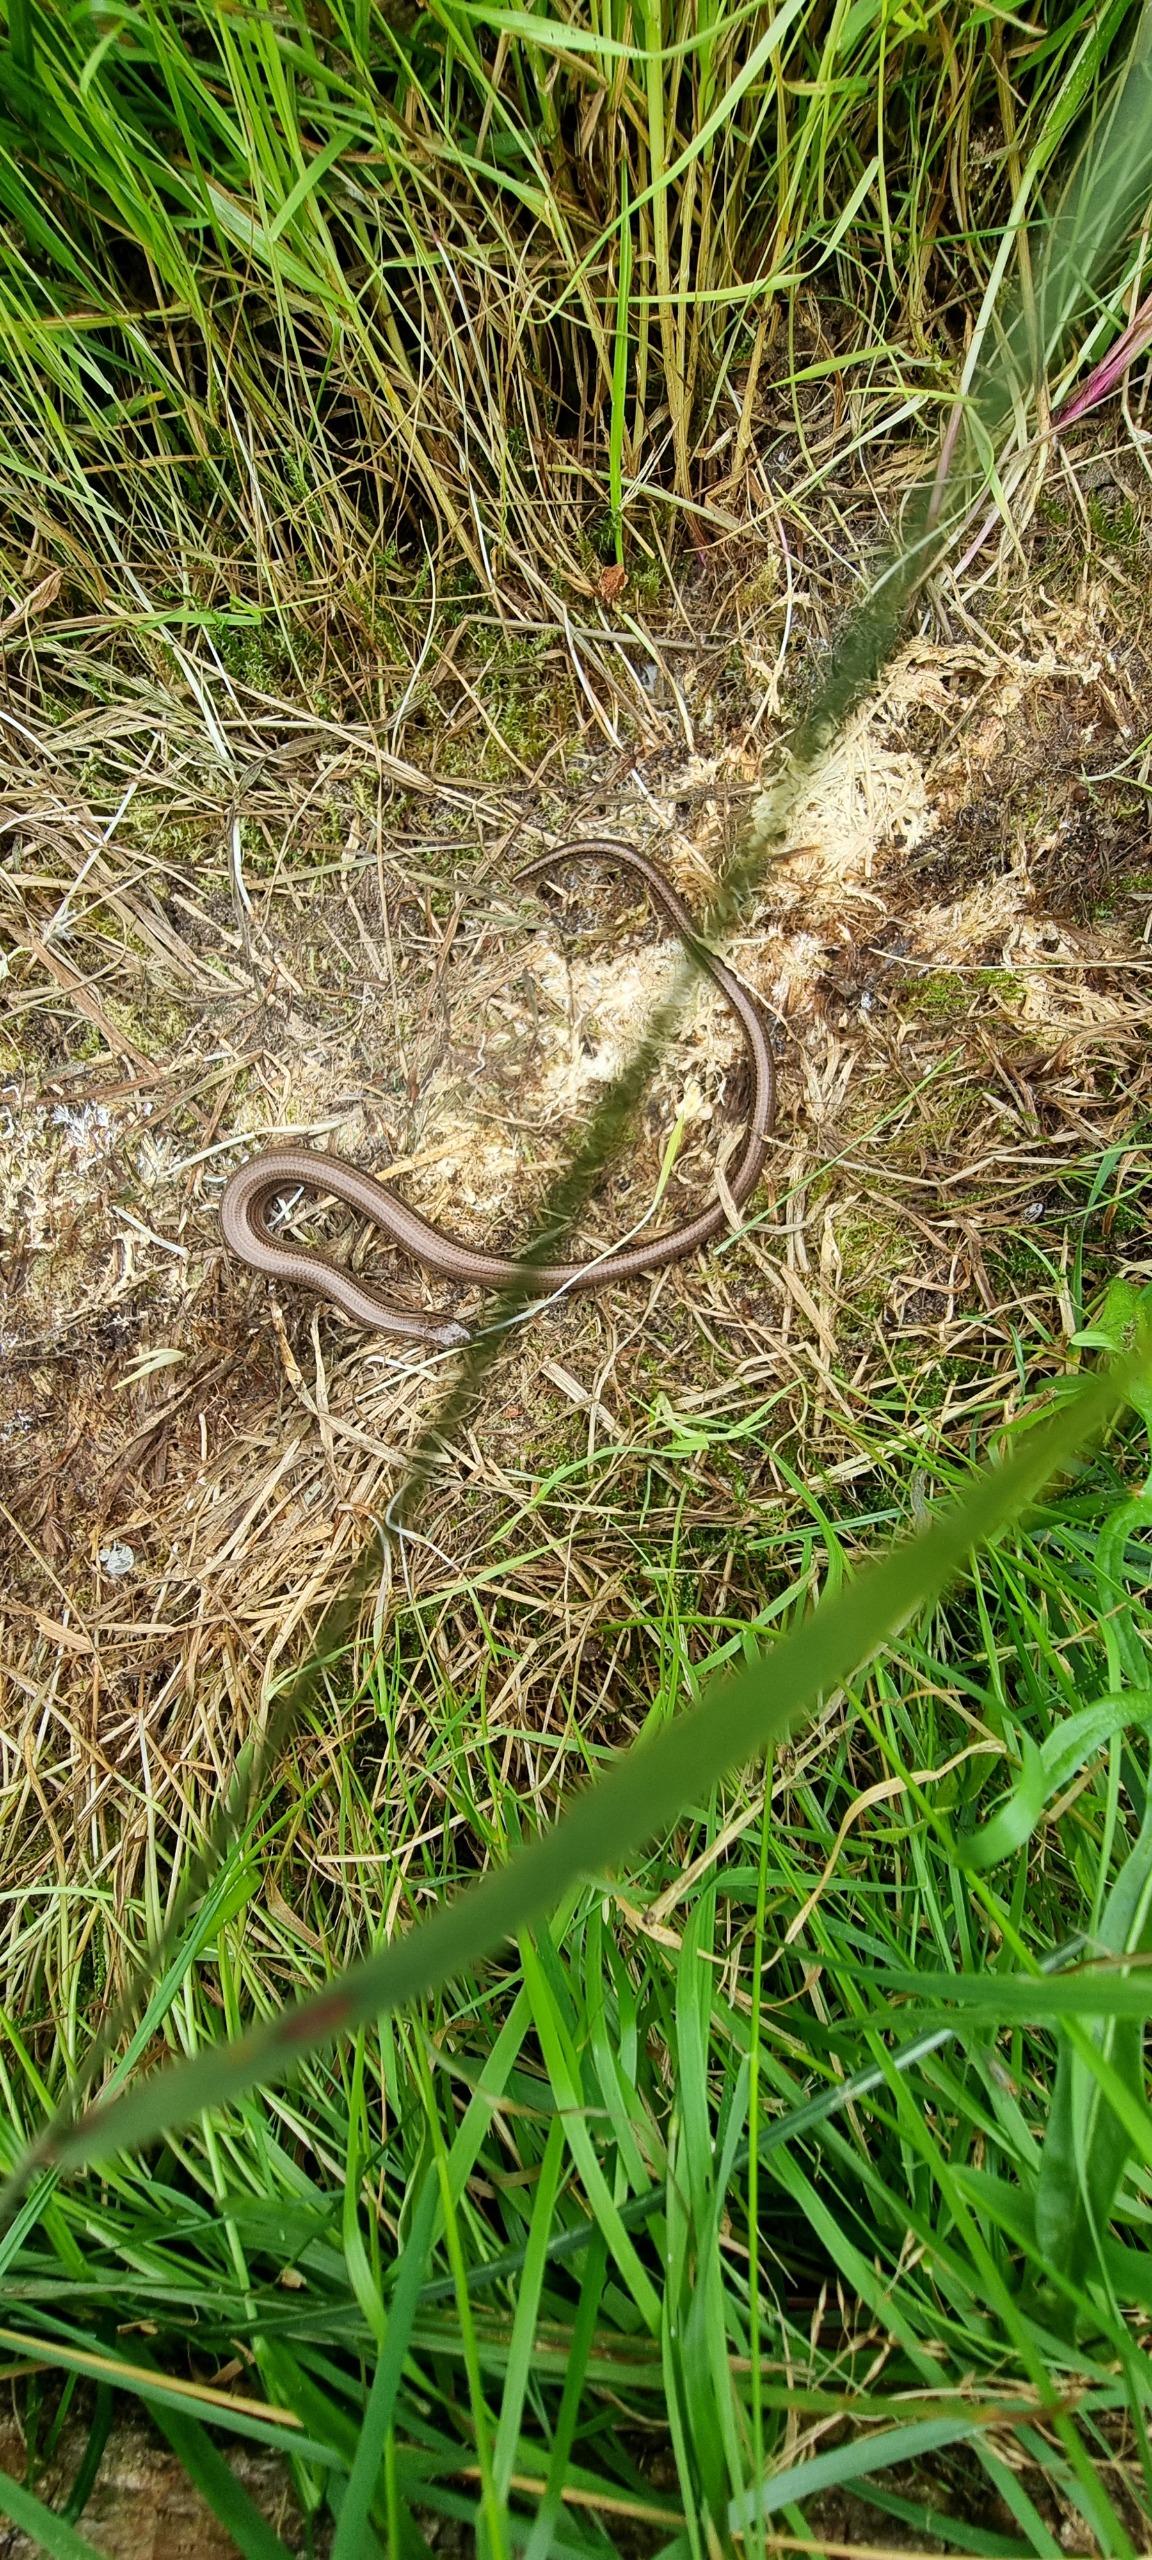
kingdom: Animalia
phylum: Chordata
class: Squamata
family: Anguidae
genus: Anguis
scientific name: Anguis fragilis
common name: Stålorm
